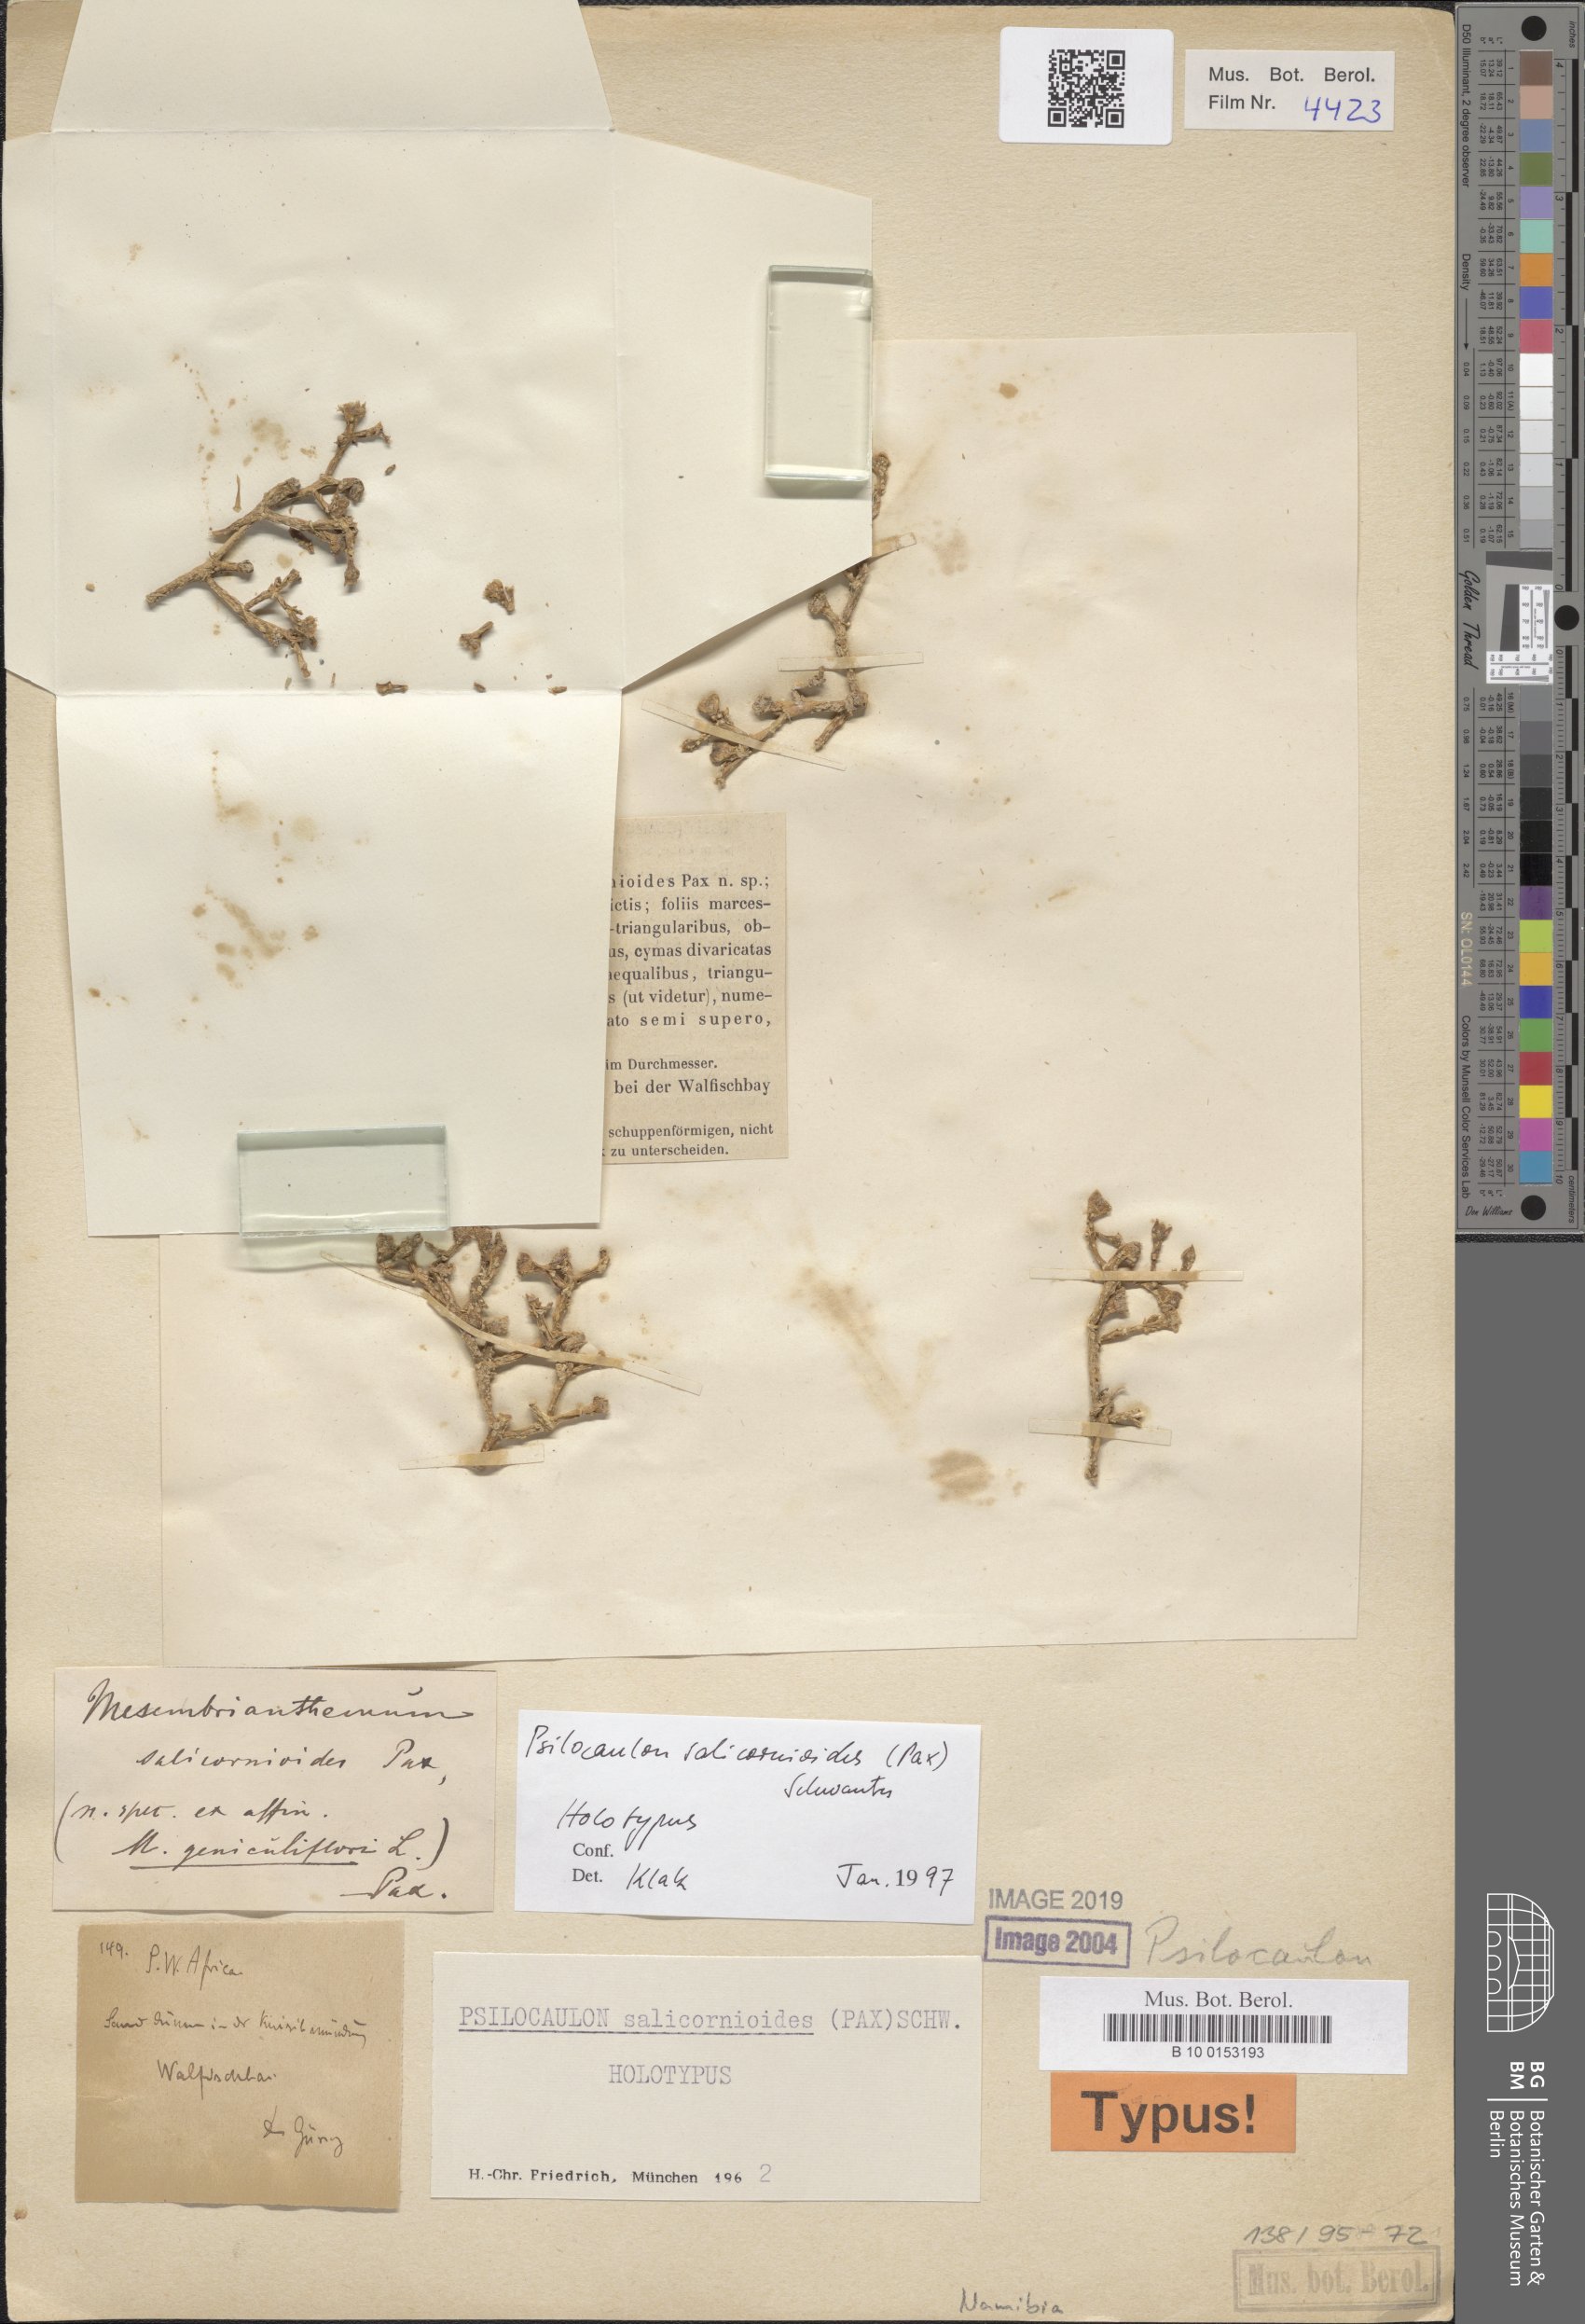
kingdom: Plantae
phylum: Tracheophyta
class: Magnoliopsida
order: Caryophyllales
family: Aizoaceae
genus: Mesembryanthemum
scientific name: Mesembryanthemum salicornioides
